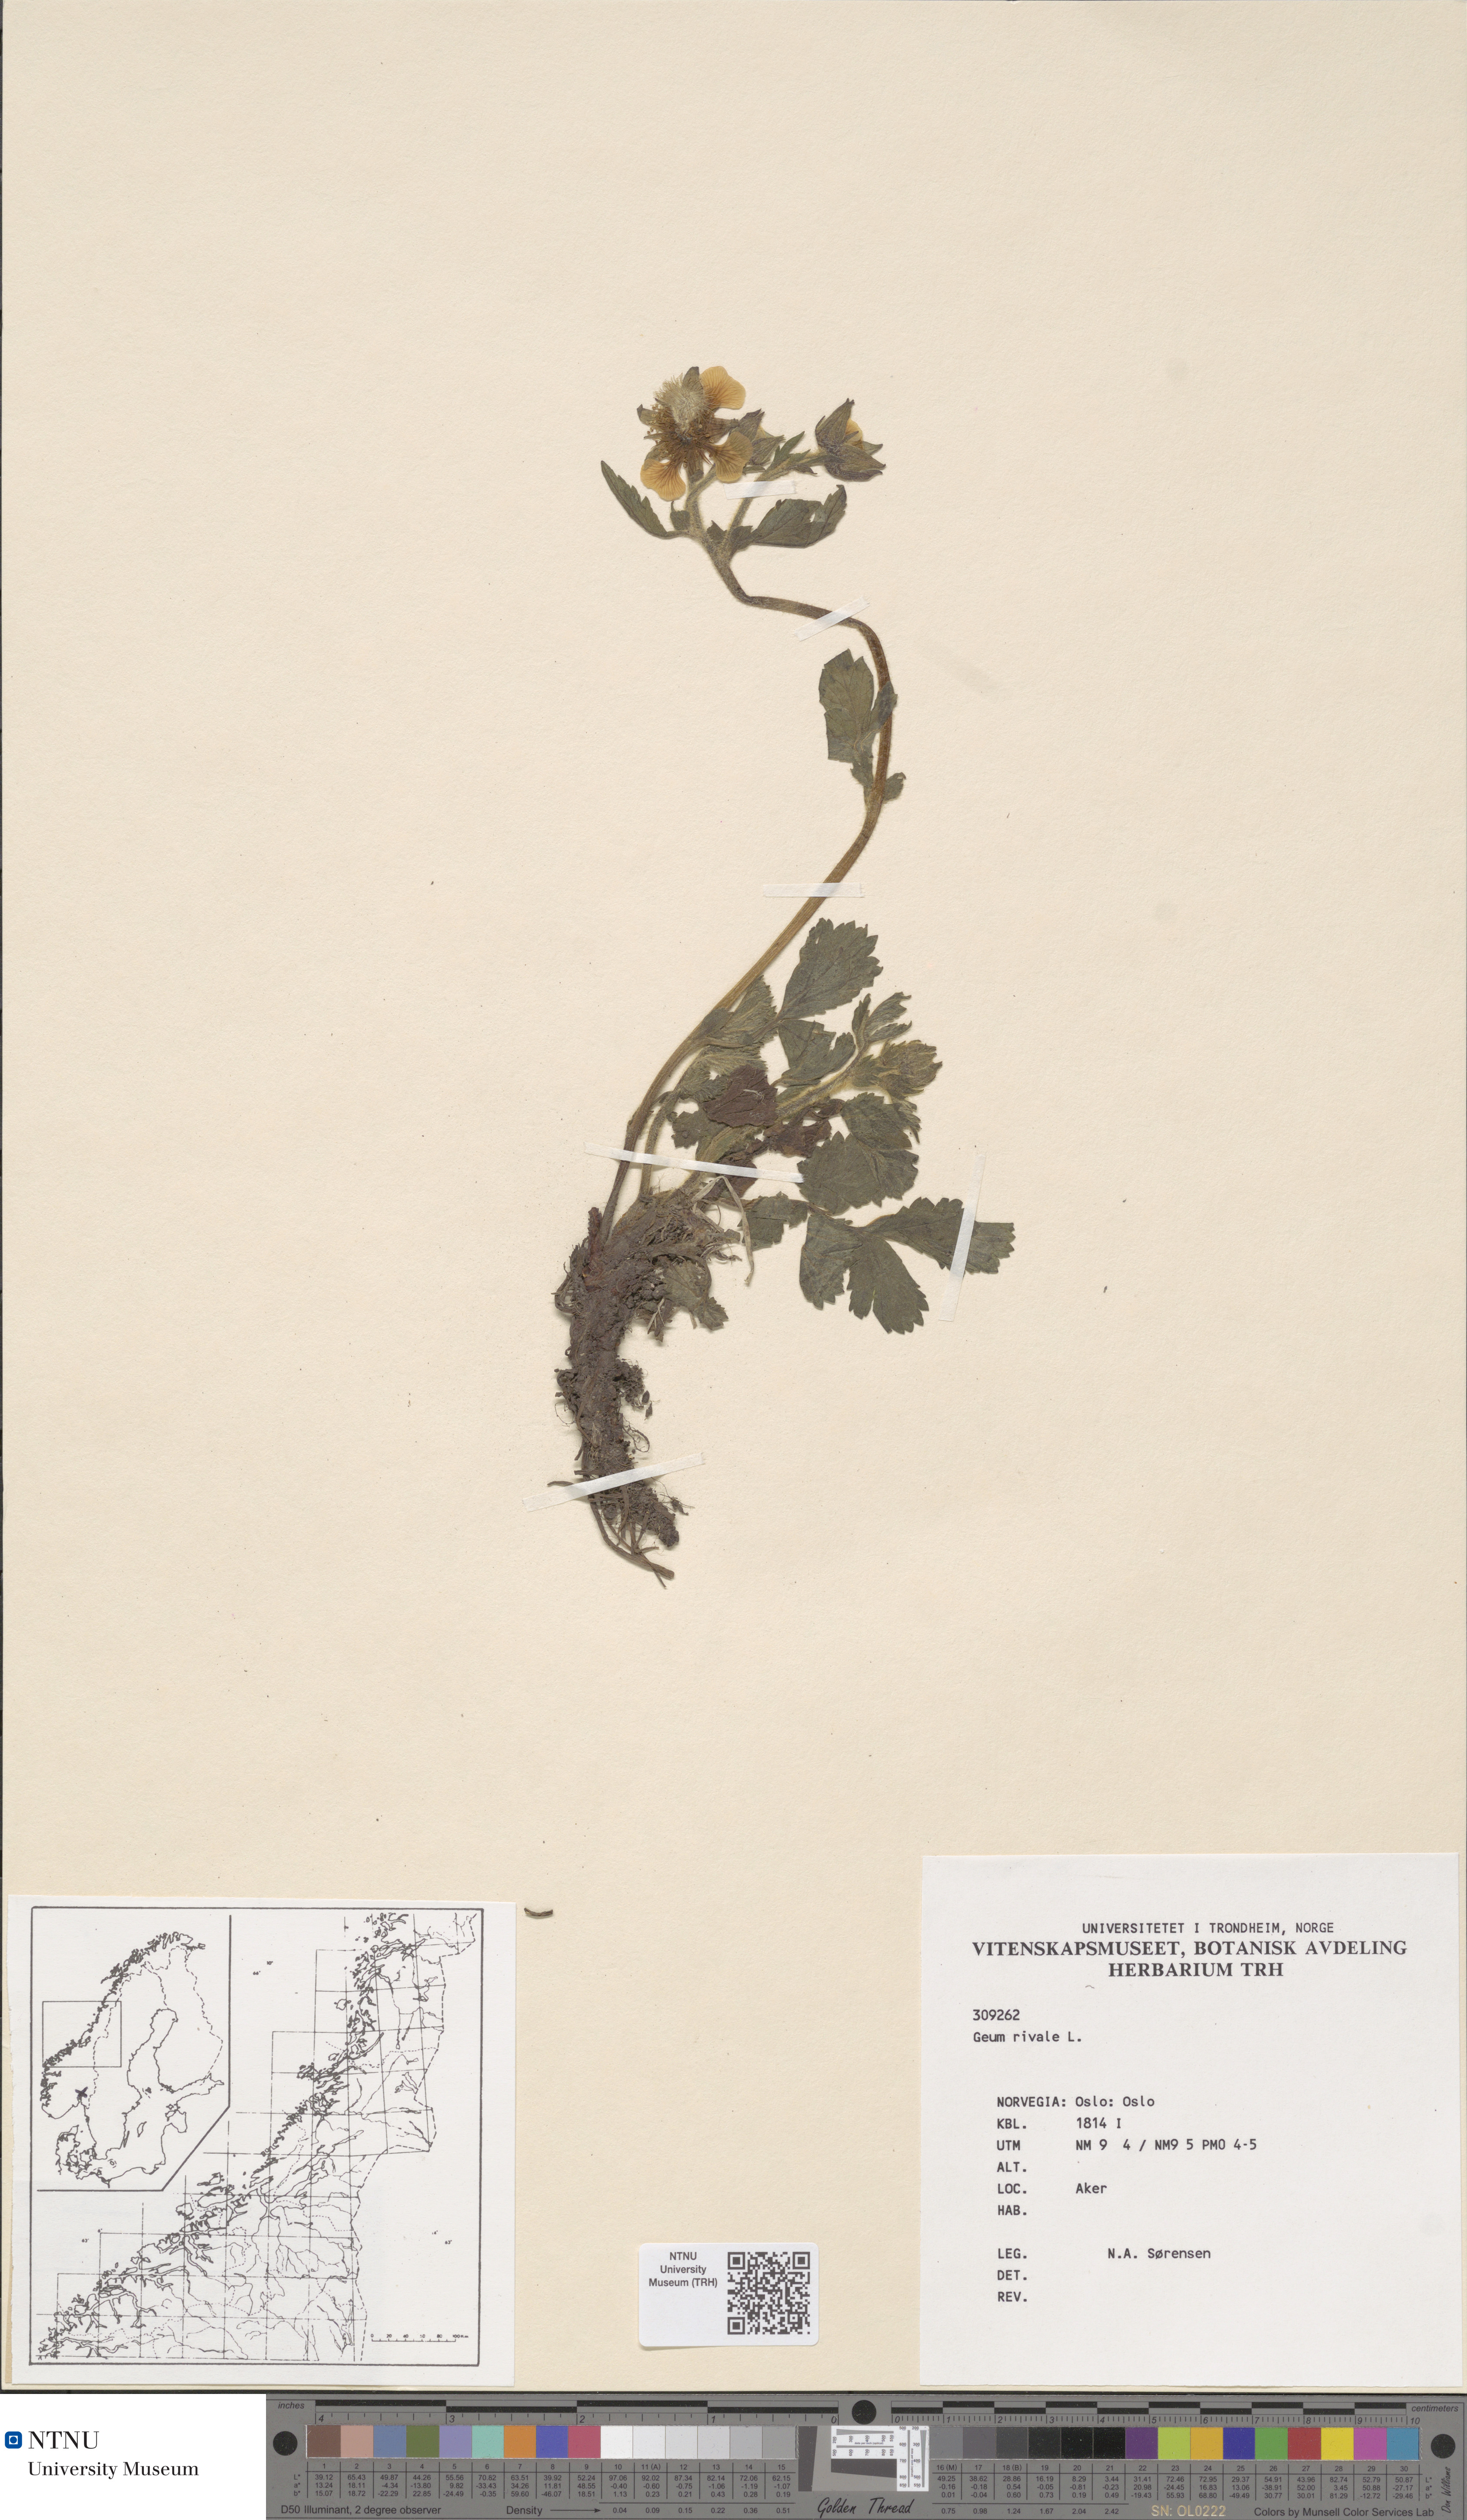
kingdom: Plantae
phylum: Tracheophyta
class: Magnoliopsida
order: Rosales
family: Rosaceae
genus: Geum
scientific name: Geum rivale
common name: Water avens
